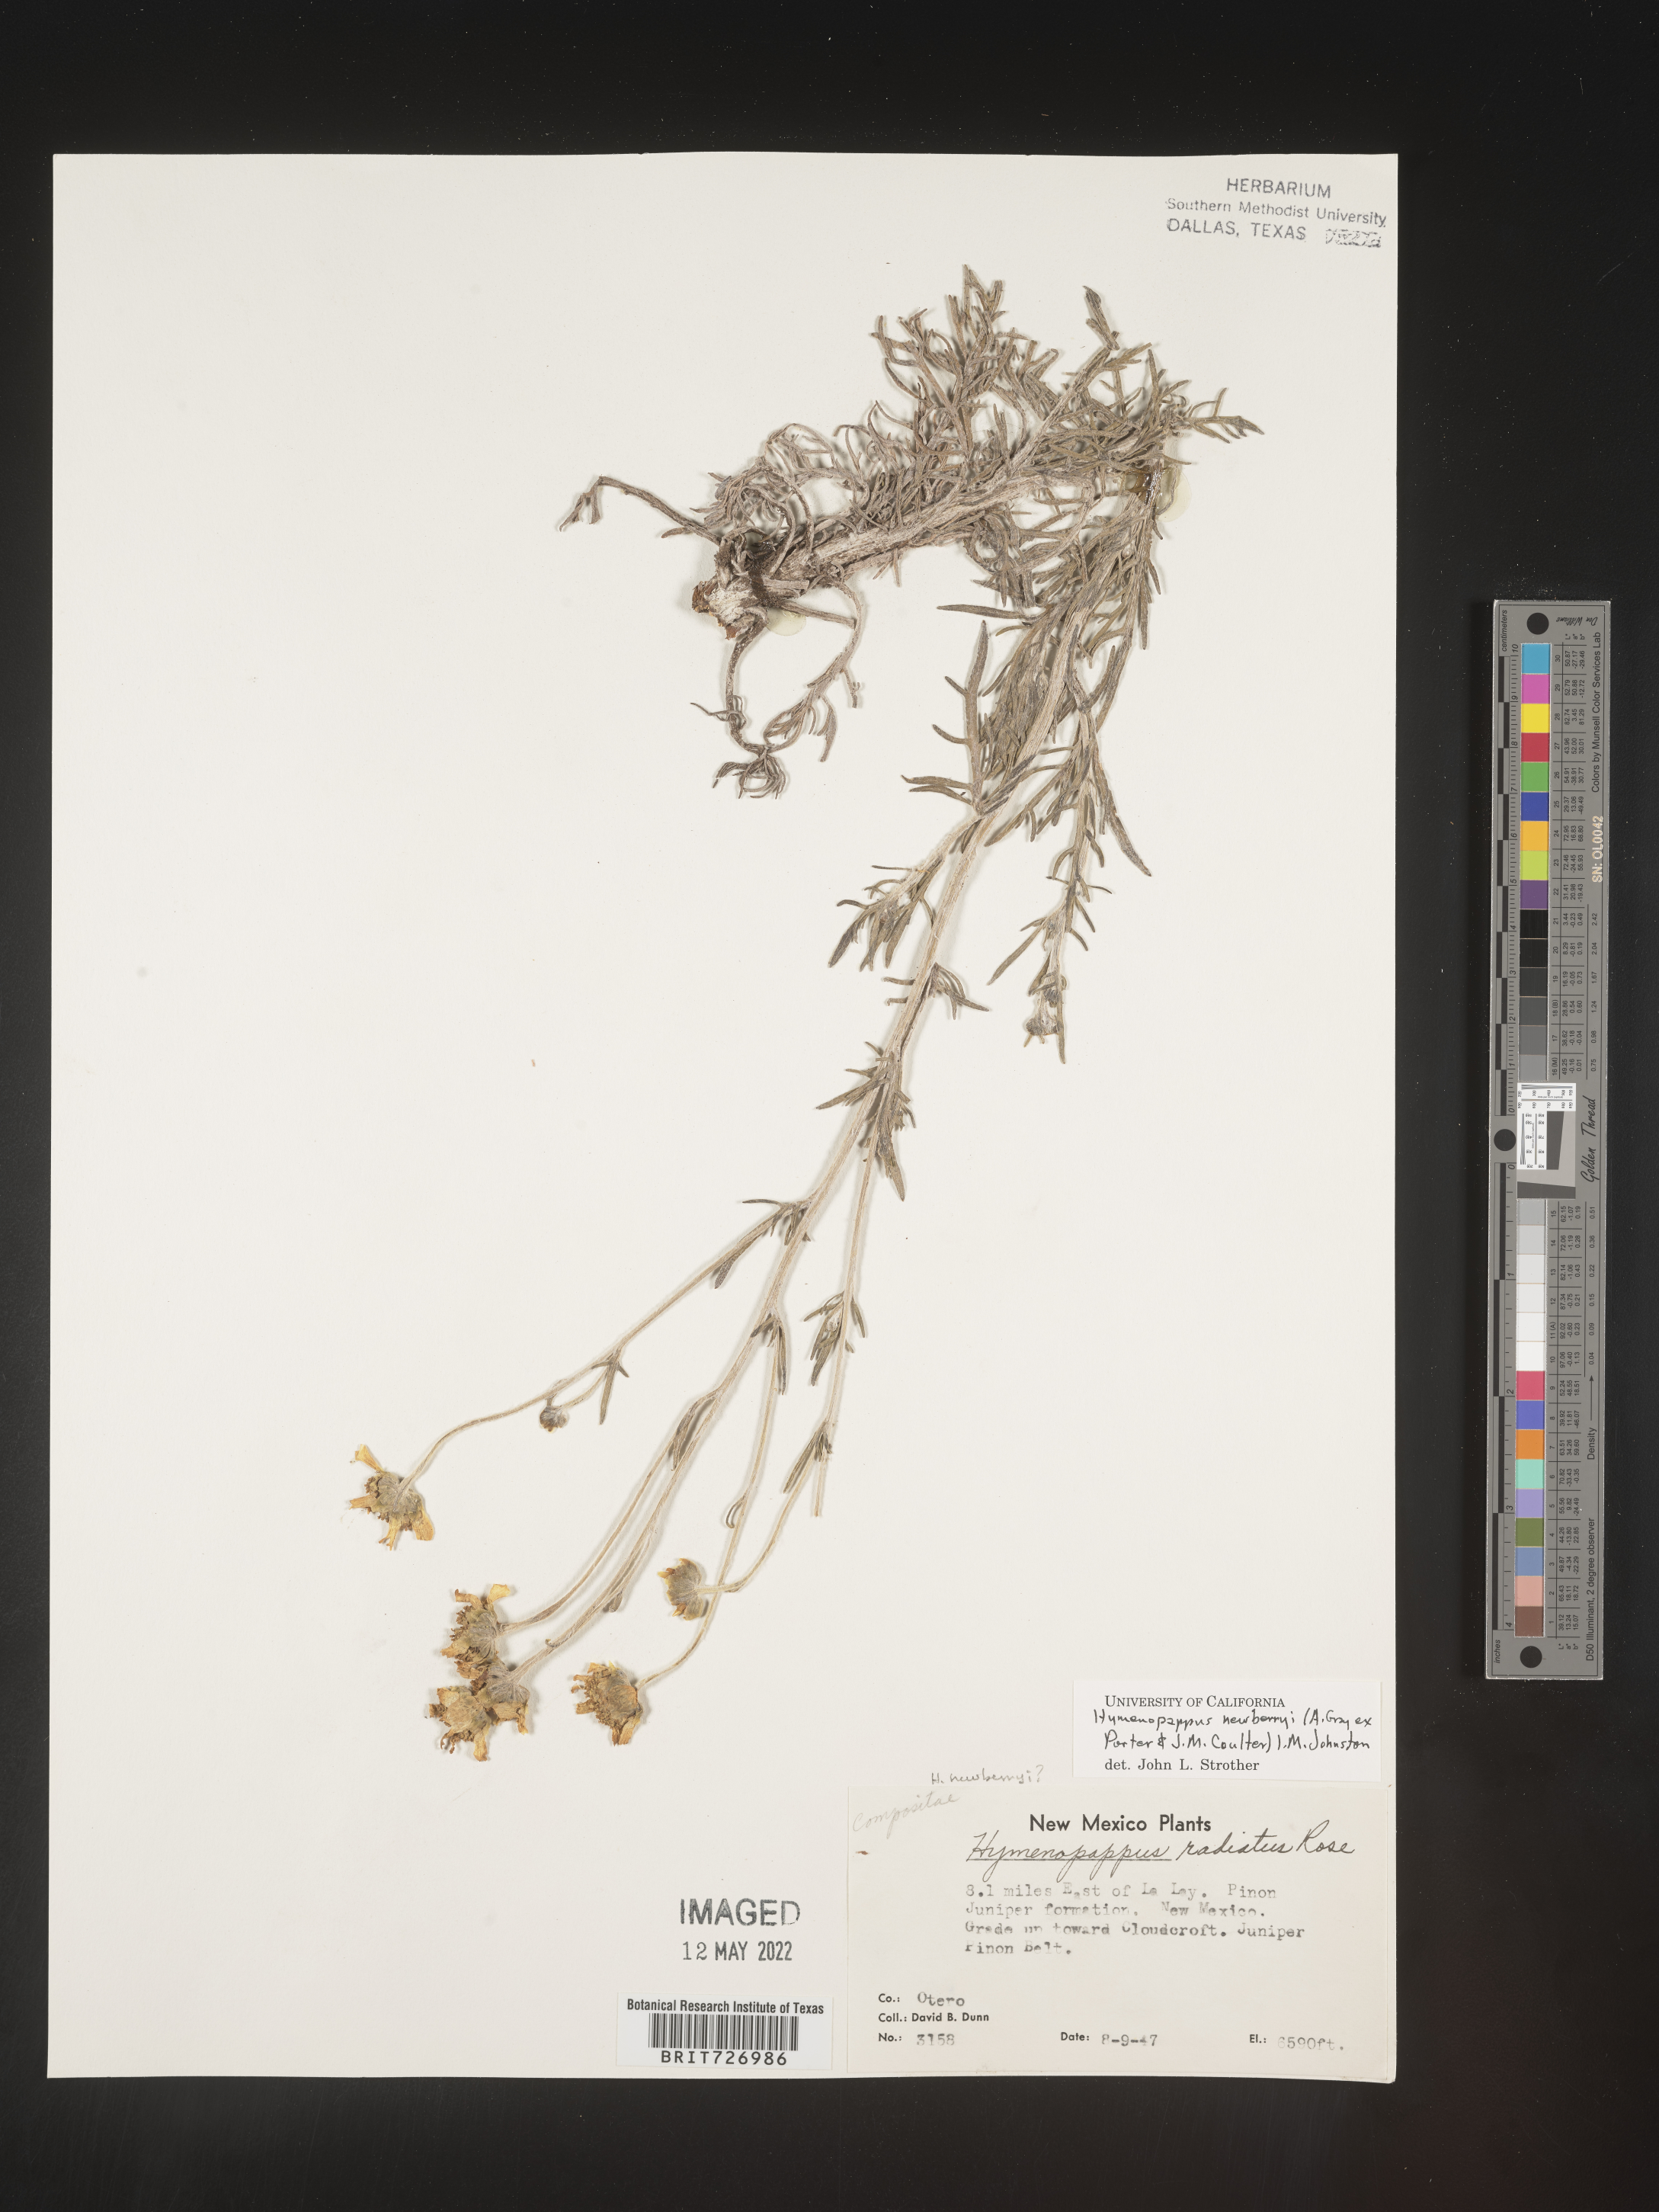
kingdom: Plantae
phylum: Tracheophyta
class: Magnoliopsida
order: Asterales
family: Asteraceae
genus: Hymenopappus
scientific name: Hymenopappus newberryi
